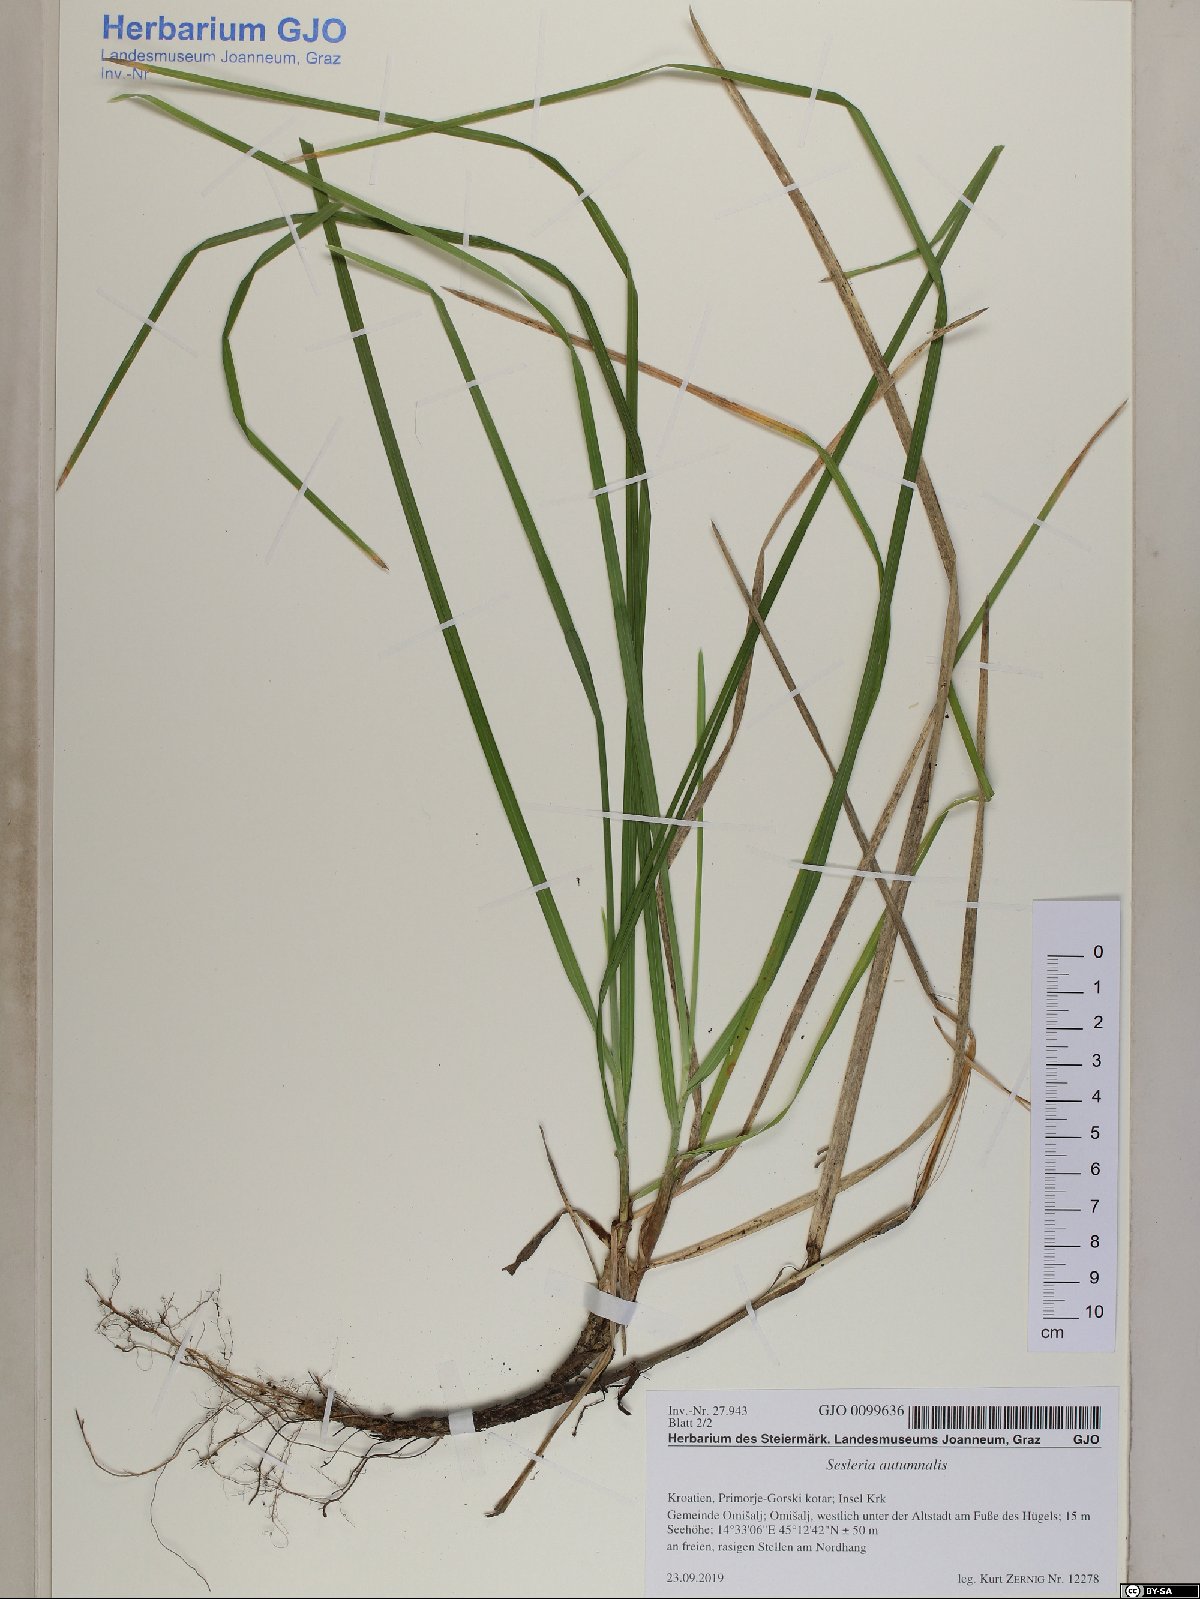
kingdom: Plantae
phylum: Tracheophyta
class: Liliopsida
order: Poales
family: Poaceae
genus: Sesleria
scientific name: Sesleria autumnalis
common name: Autumn moor grass
